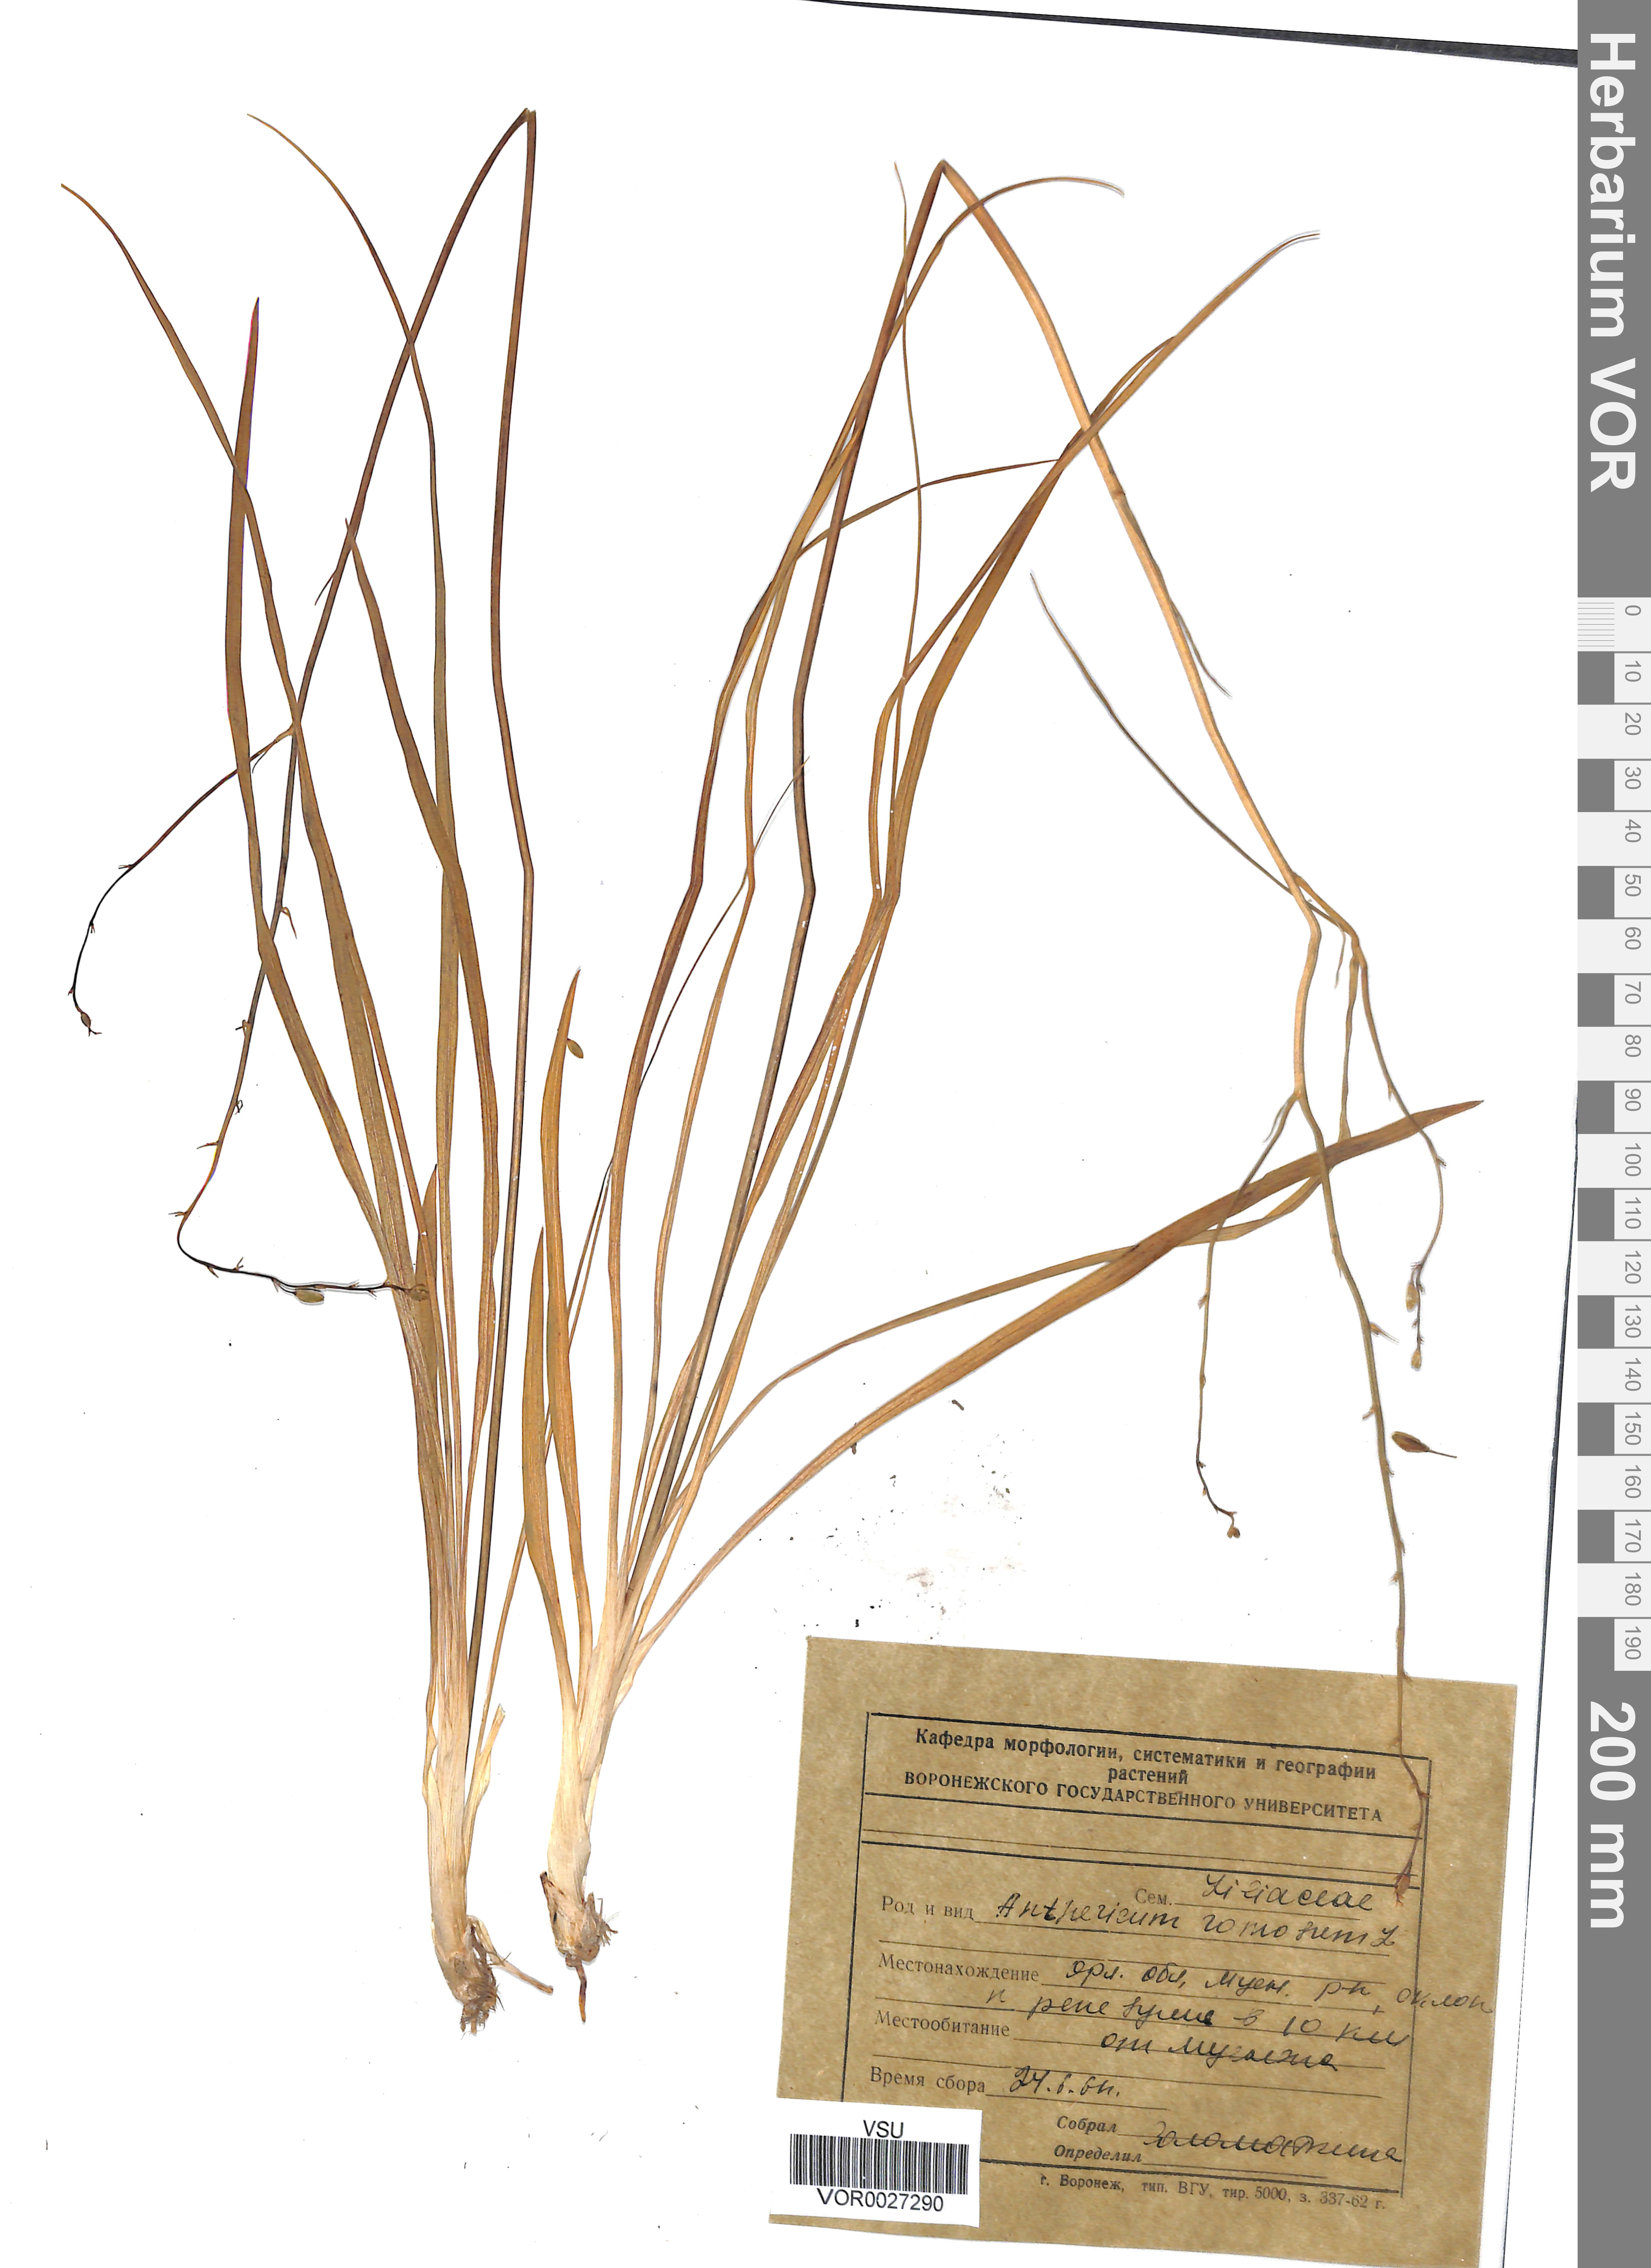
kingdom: Plantae
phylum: Tracheophyta
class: Liliopsida
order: Asparagales
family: Asparagaceae
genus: Anthericum
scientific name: Anthericum ramosum
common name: Branched st. bernard's-lily
